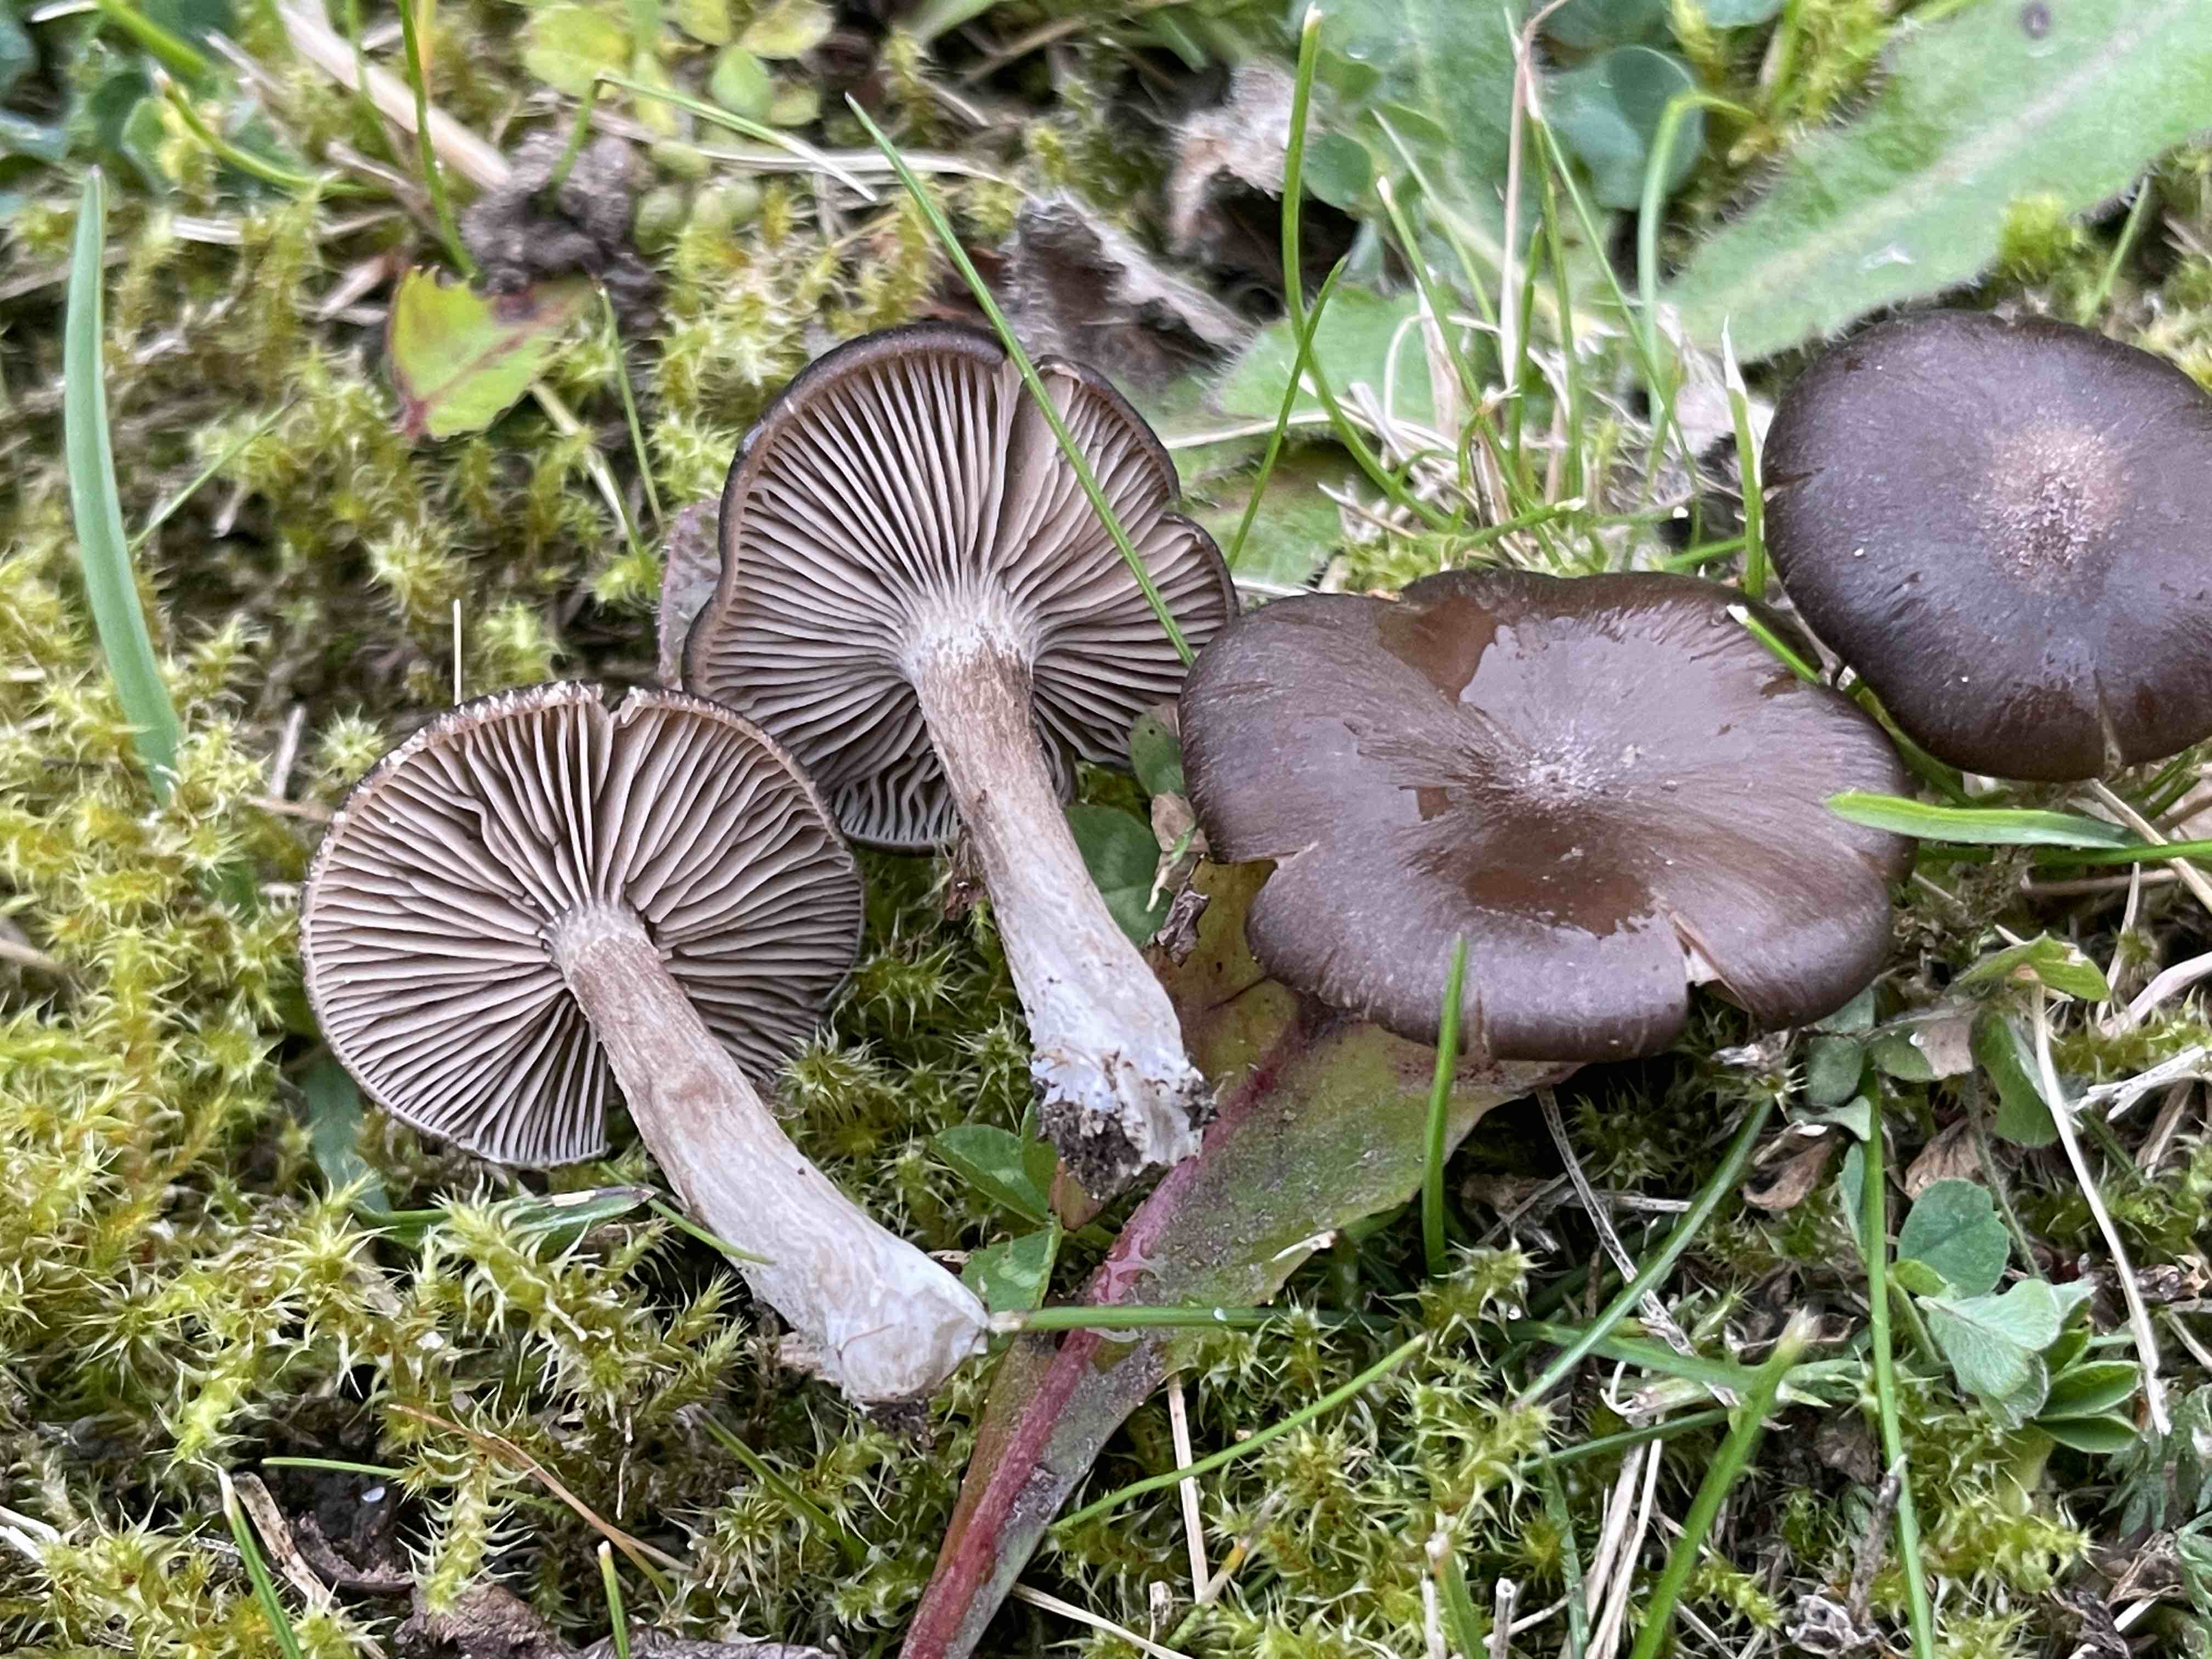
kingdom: Fungi
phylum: Basidiomycota
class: Agaricomycetes
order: Agaricales
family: Entolomataceae
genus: Entoloma
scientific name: Entoloma
